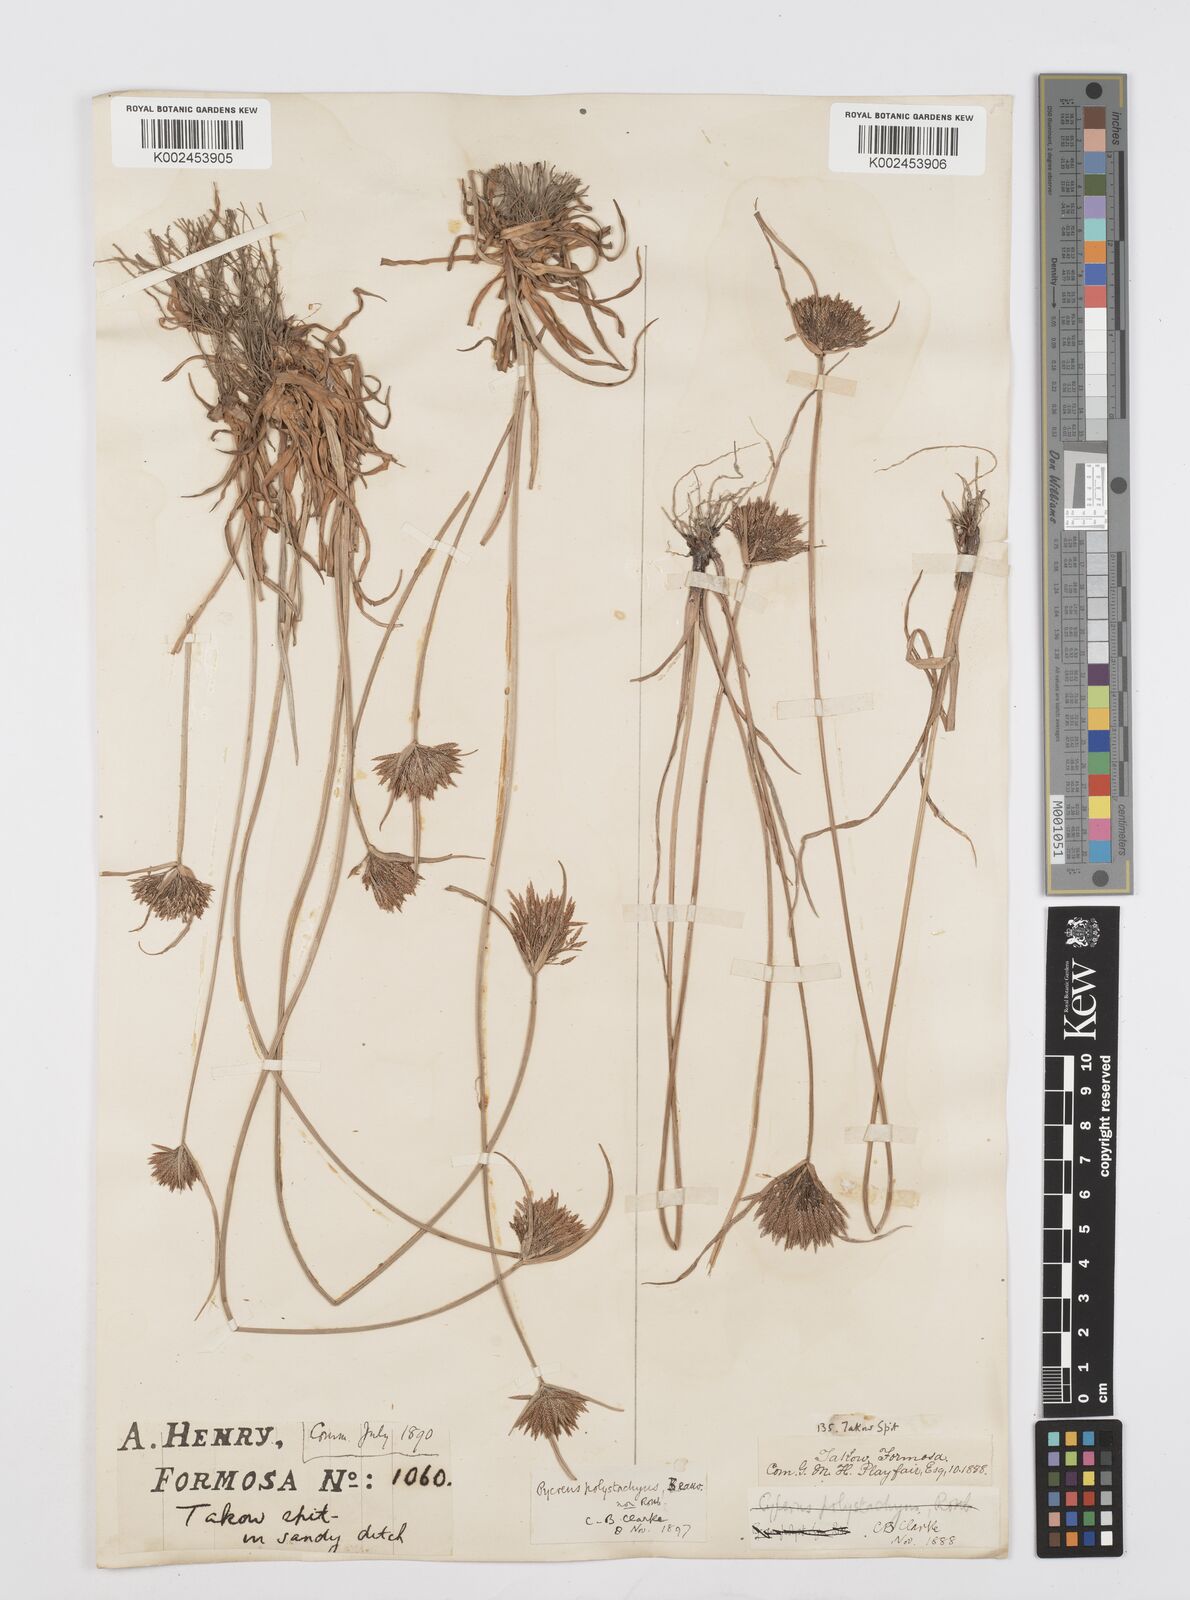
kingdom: Plantae
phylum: Tracheophyta
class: Liliopsida
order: Poales
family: Cyperaceae
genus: Cyperus
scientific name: Cyperus polystachyos
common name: Bunchy flat sedge
